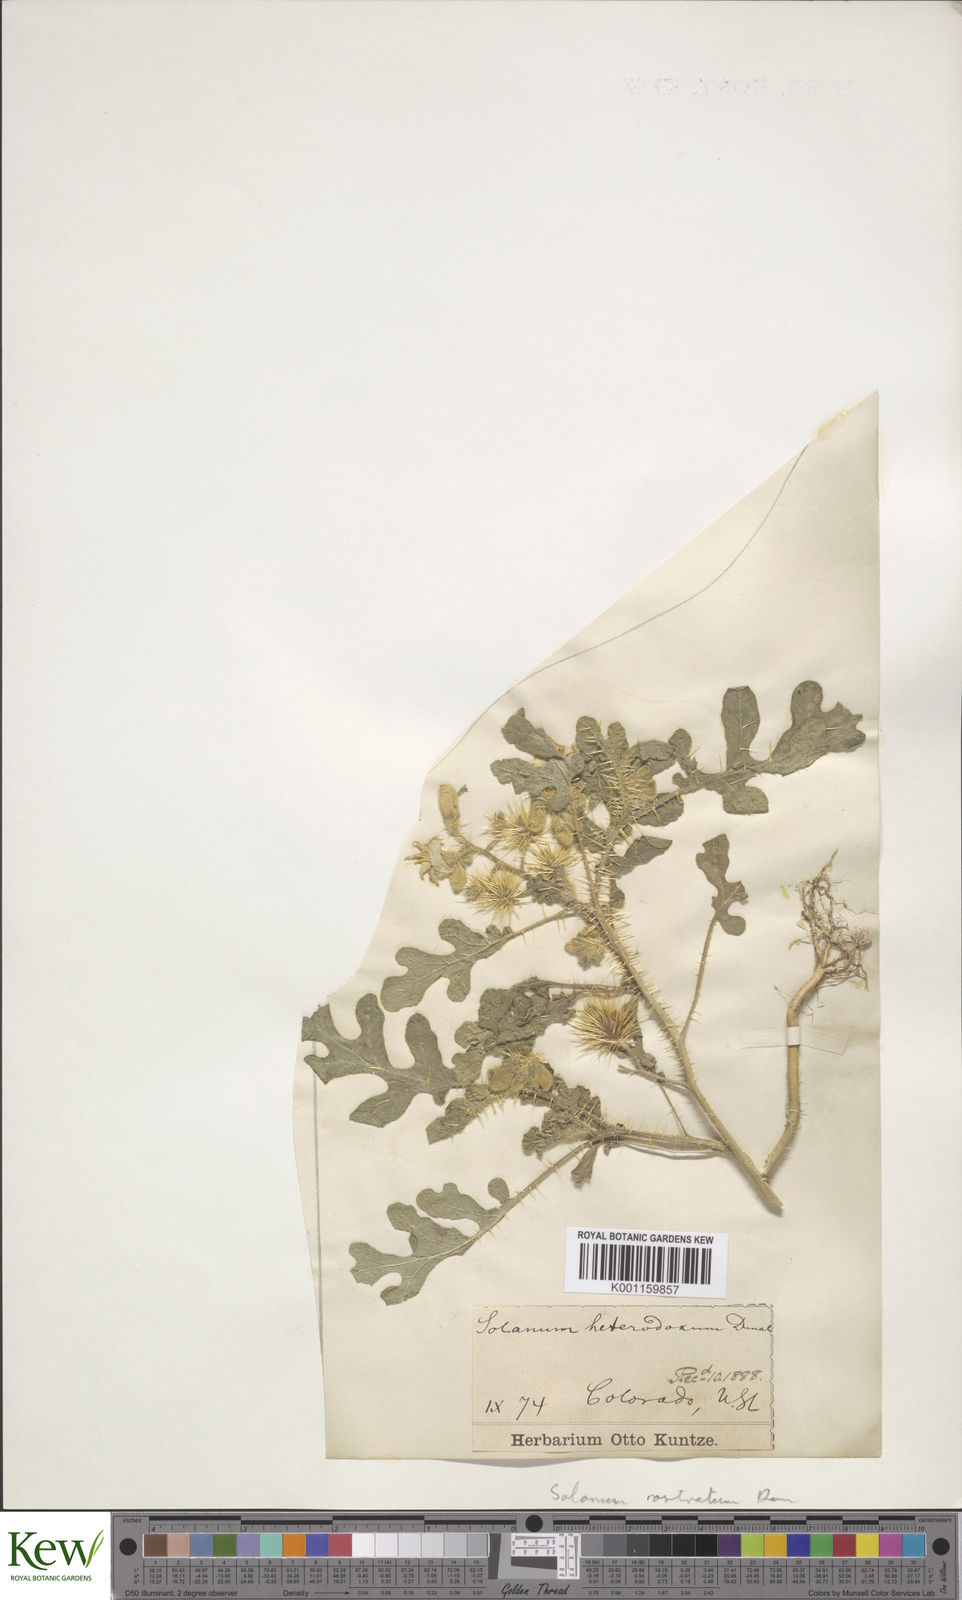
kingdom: Plantae
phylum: Tracheophyta
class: Magnoliopsida
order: Solanales
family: Solanaceae
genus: Solanum
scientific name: Solanum angustifolium
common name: Buffalobur nightshade
